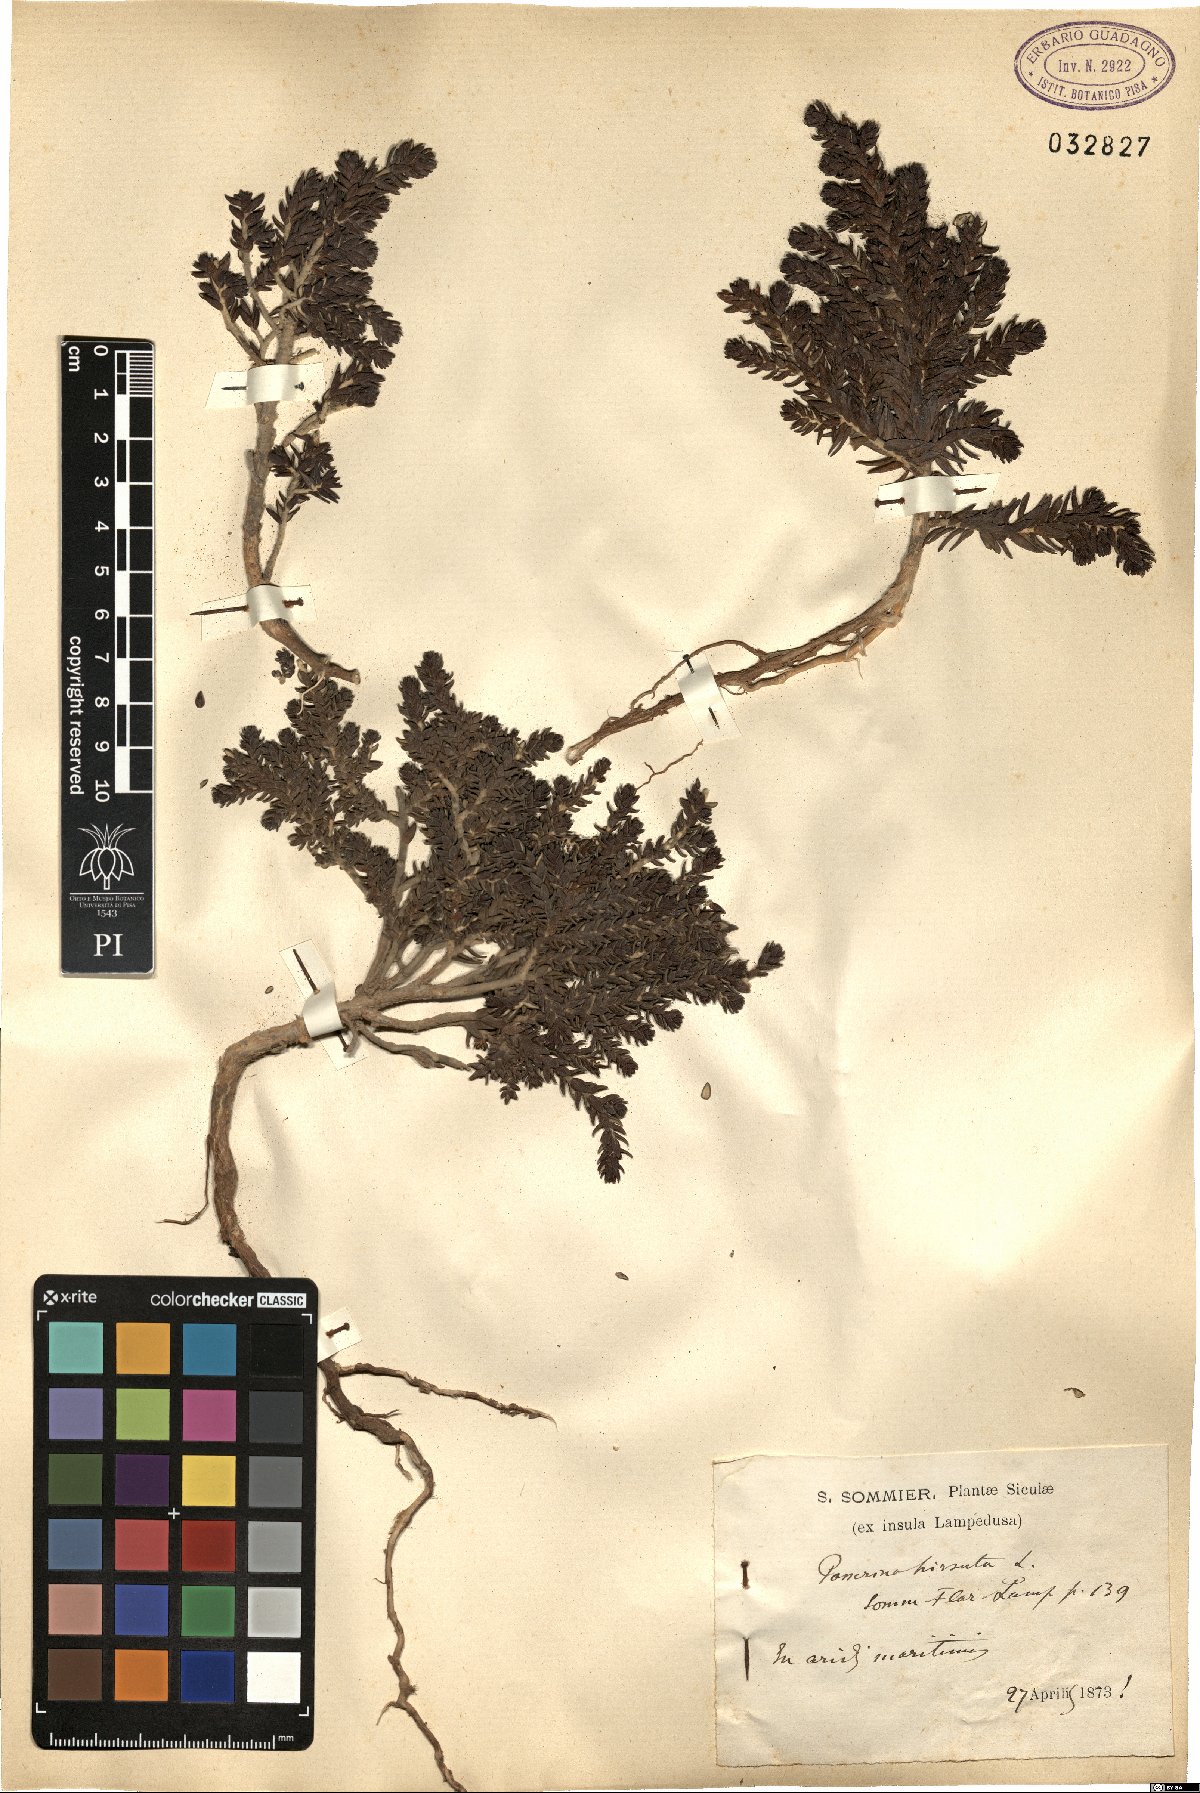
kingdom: Plantae
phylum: Tracheophyta
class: Magnoliopsida
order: Malvales
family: Thymelaeaceae
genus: Thymelaea
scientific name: Thymelaea hirsuta
